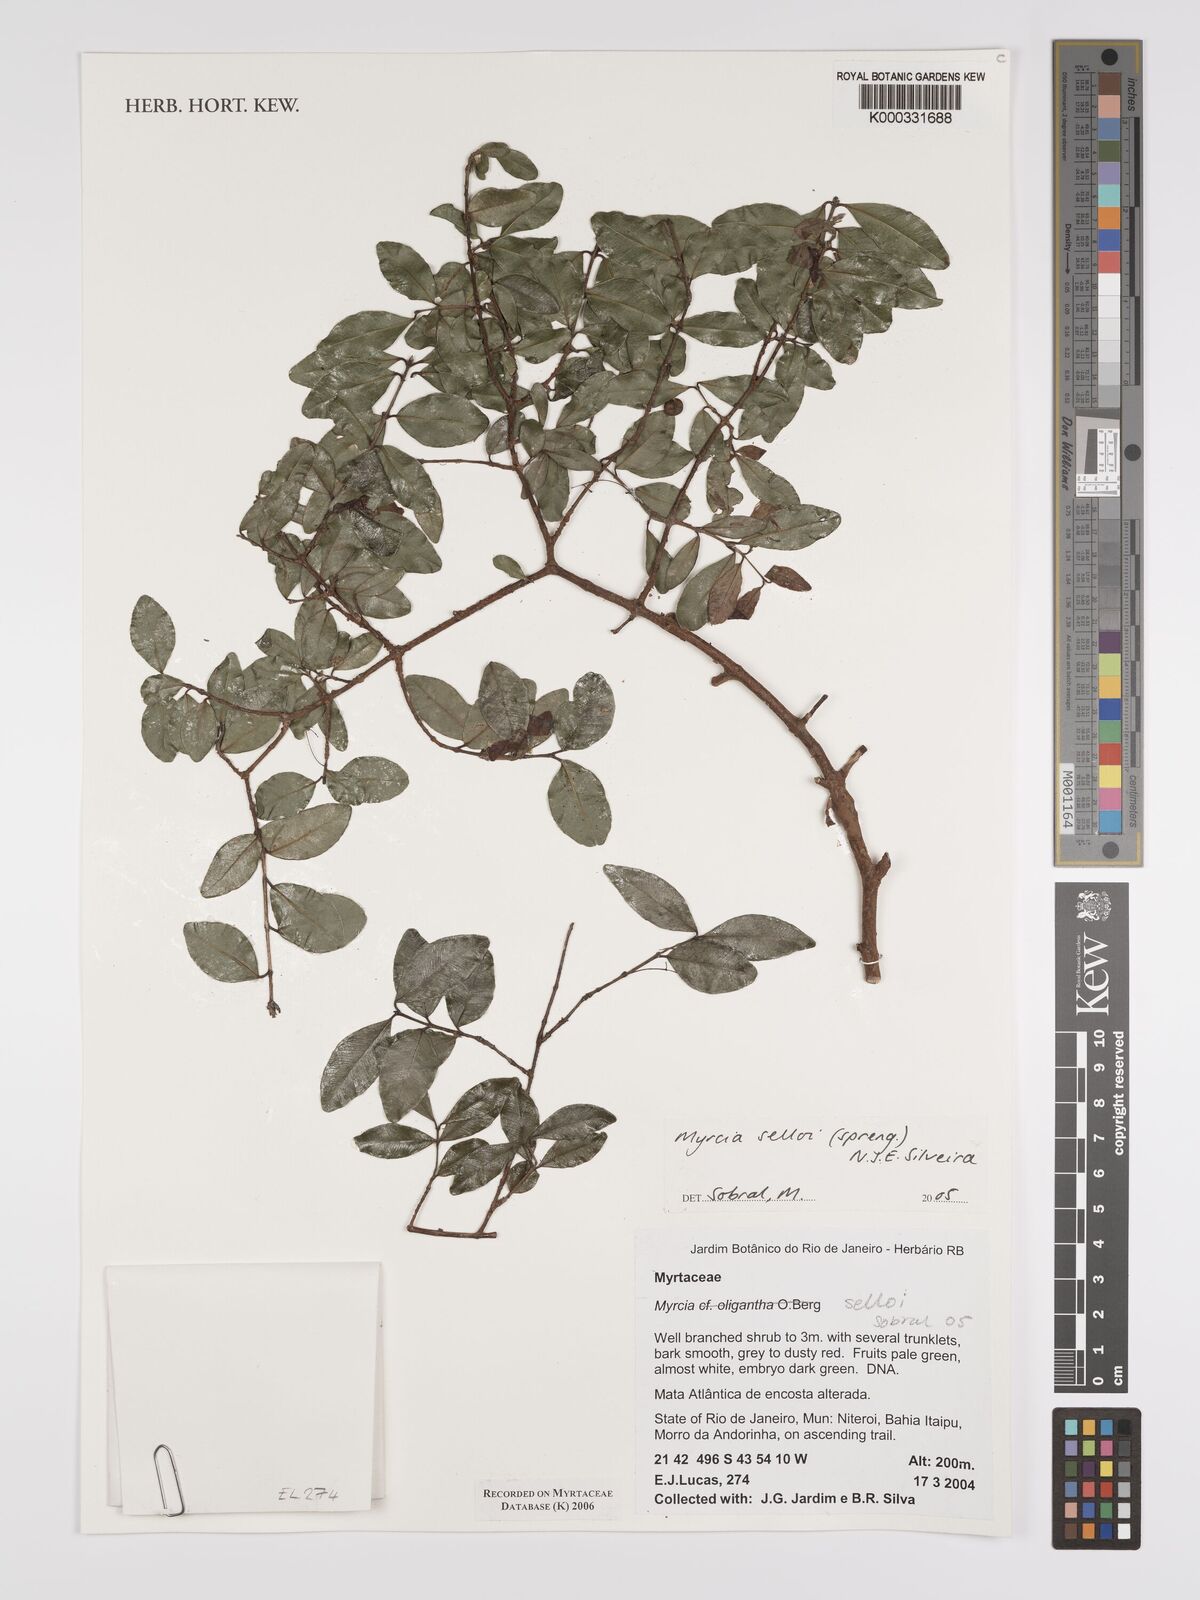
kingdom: Plantae
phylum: Tracheophyta
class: Magnoliopsida
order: Myrtales
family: Myrtaceae
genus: Myrcia
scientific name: Myrcia selloi
